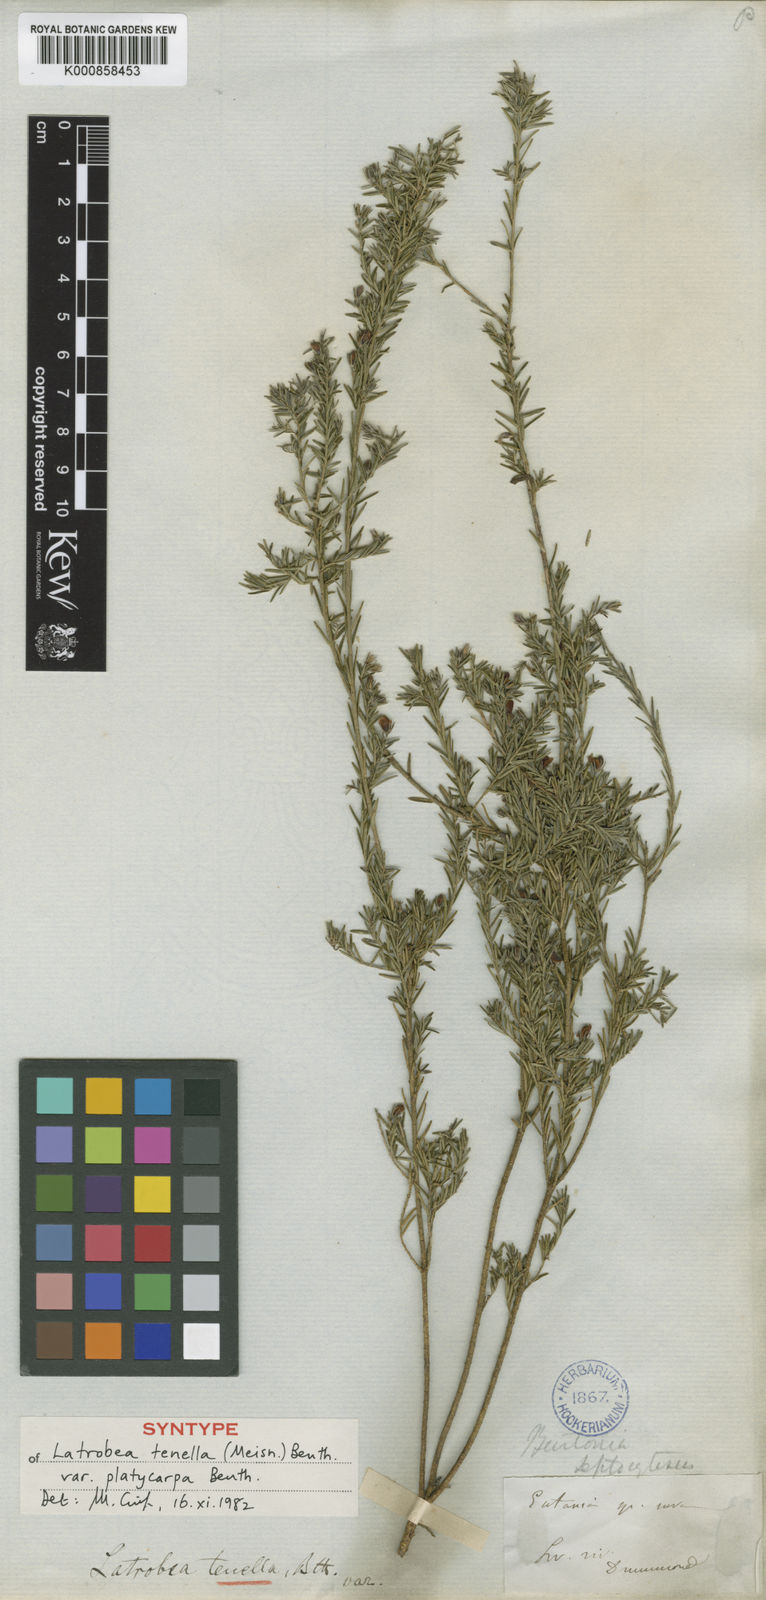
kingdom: Plantae
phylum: Tracheophyta
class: Magnoliopsida
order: Fabales
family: Fabaceae
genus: Latrobea
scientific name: Latrobea tenella
